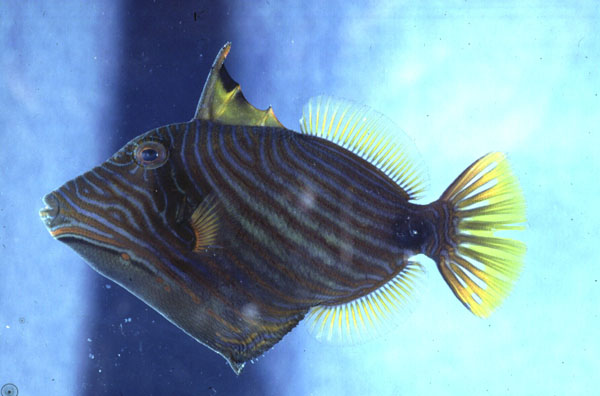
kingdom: Animalia
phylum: Chordata
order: Tetraodontiformes
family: Balistidae
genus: Balistapus
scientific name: Balistapus undulatus
